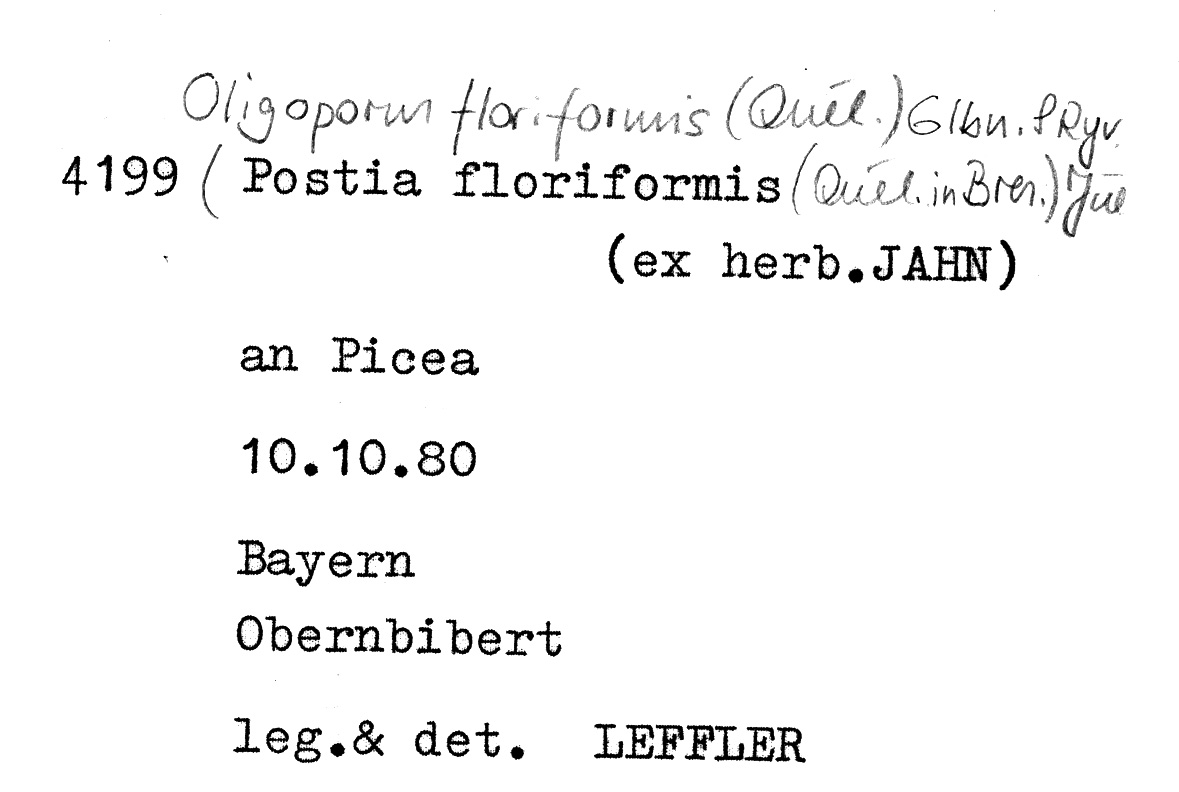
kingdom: Fungi
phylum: Basidiomycota
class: Agaricomycetes
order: Polyporales
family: Dacryobolaceae
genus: Spongiporus
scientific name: Spongiporus floriformis
